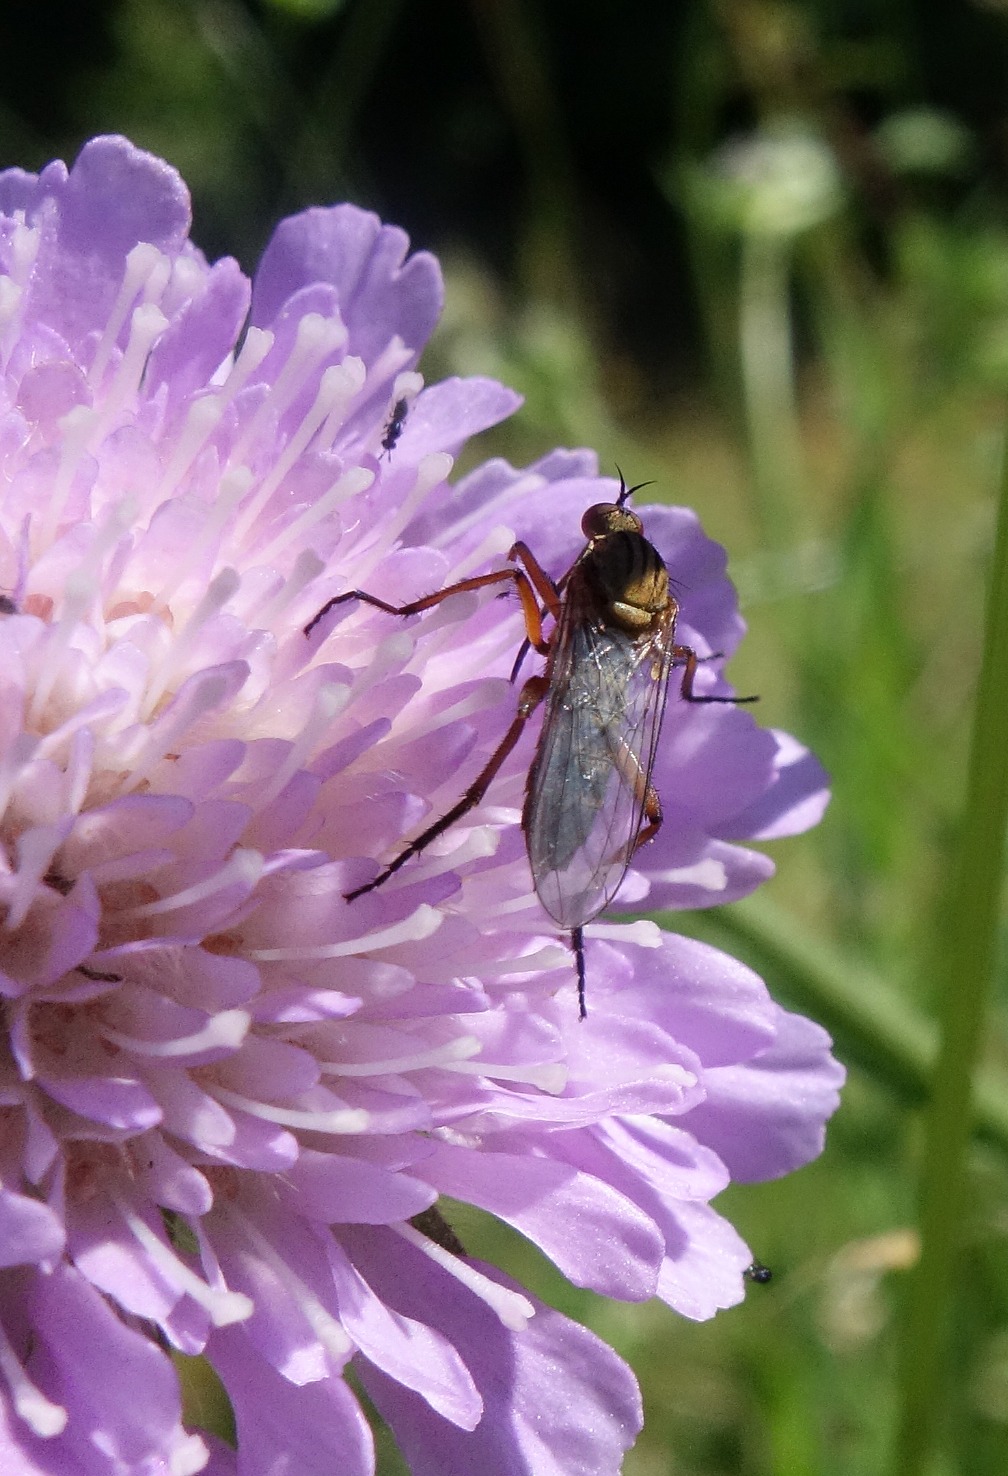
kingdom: Animalia
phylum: Arthropoda
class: Insecta
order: Diptera
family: Empididae
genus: Empis
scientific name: Empis livida
